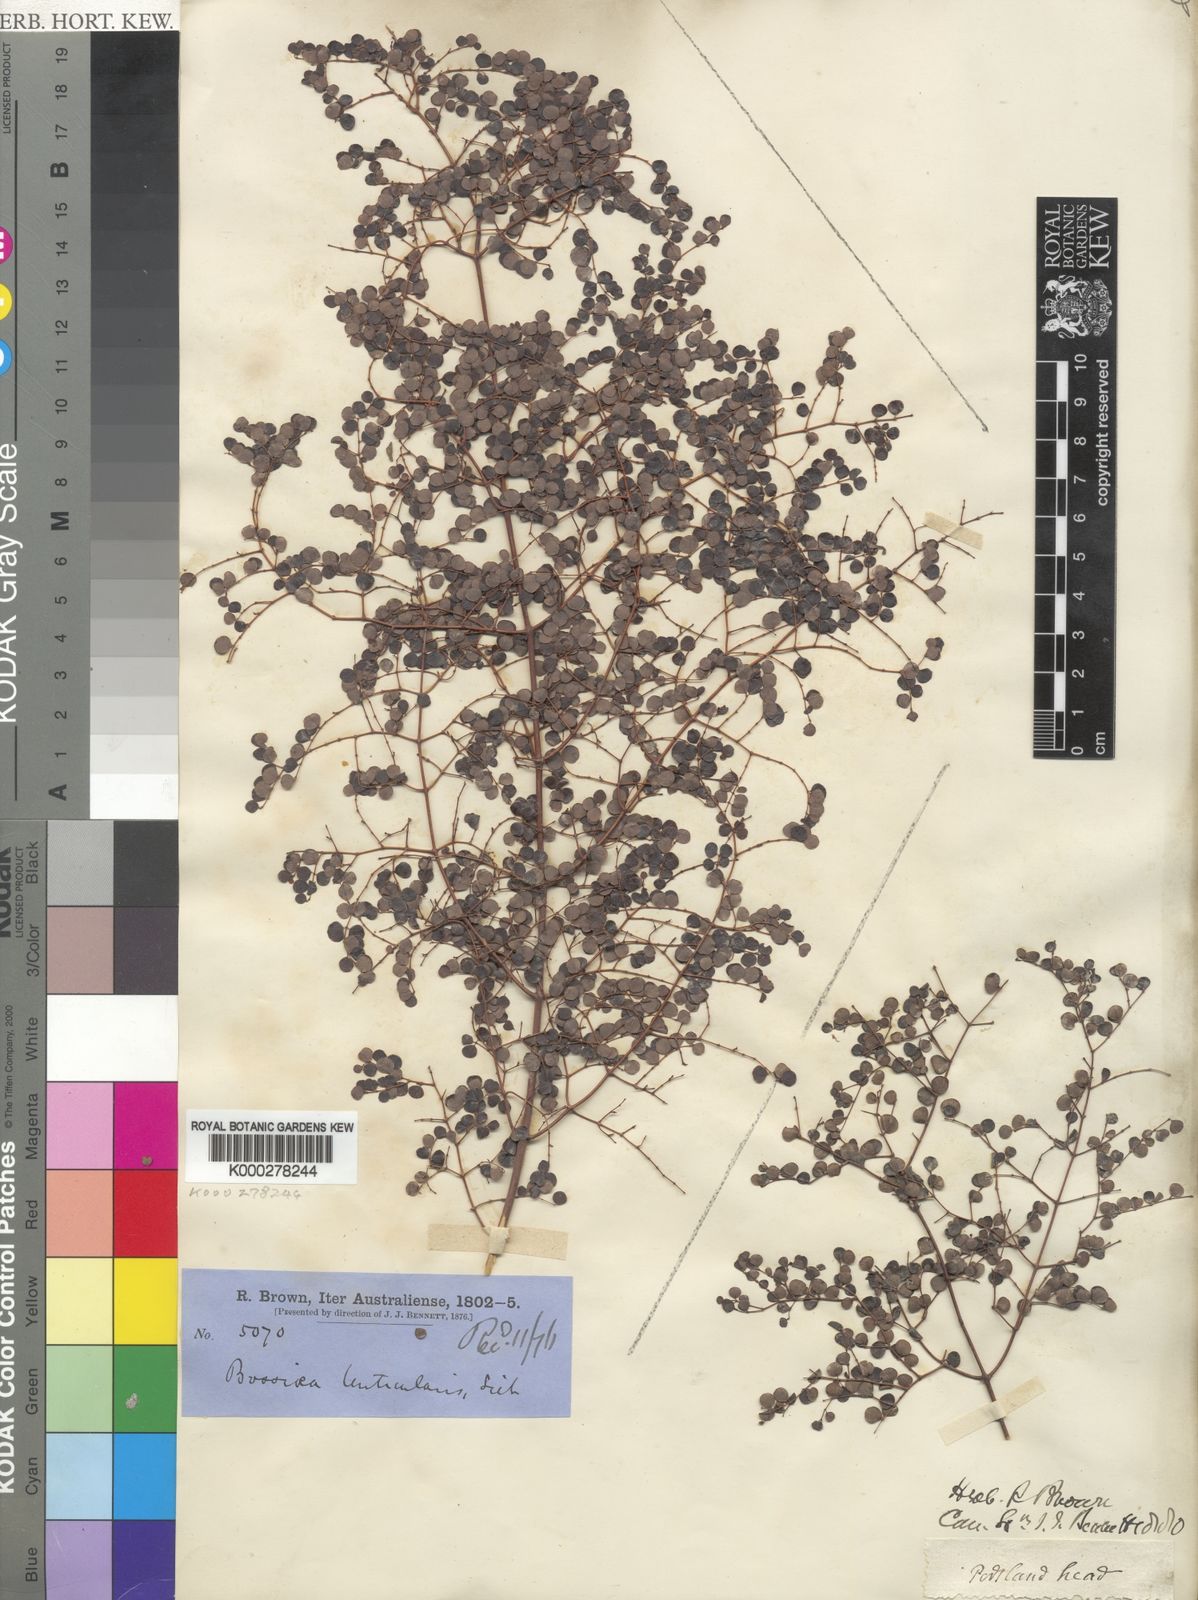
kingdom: Plantae
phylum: Tracheophyta
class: Magnoliopsida
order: Fabales
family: Fabaceae
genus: Bossiaea
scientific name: Bossiaea lenticularis
